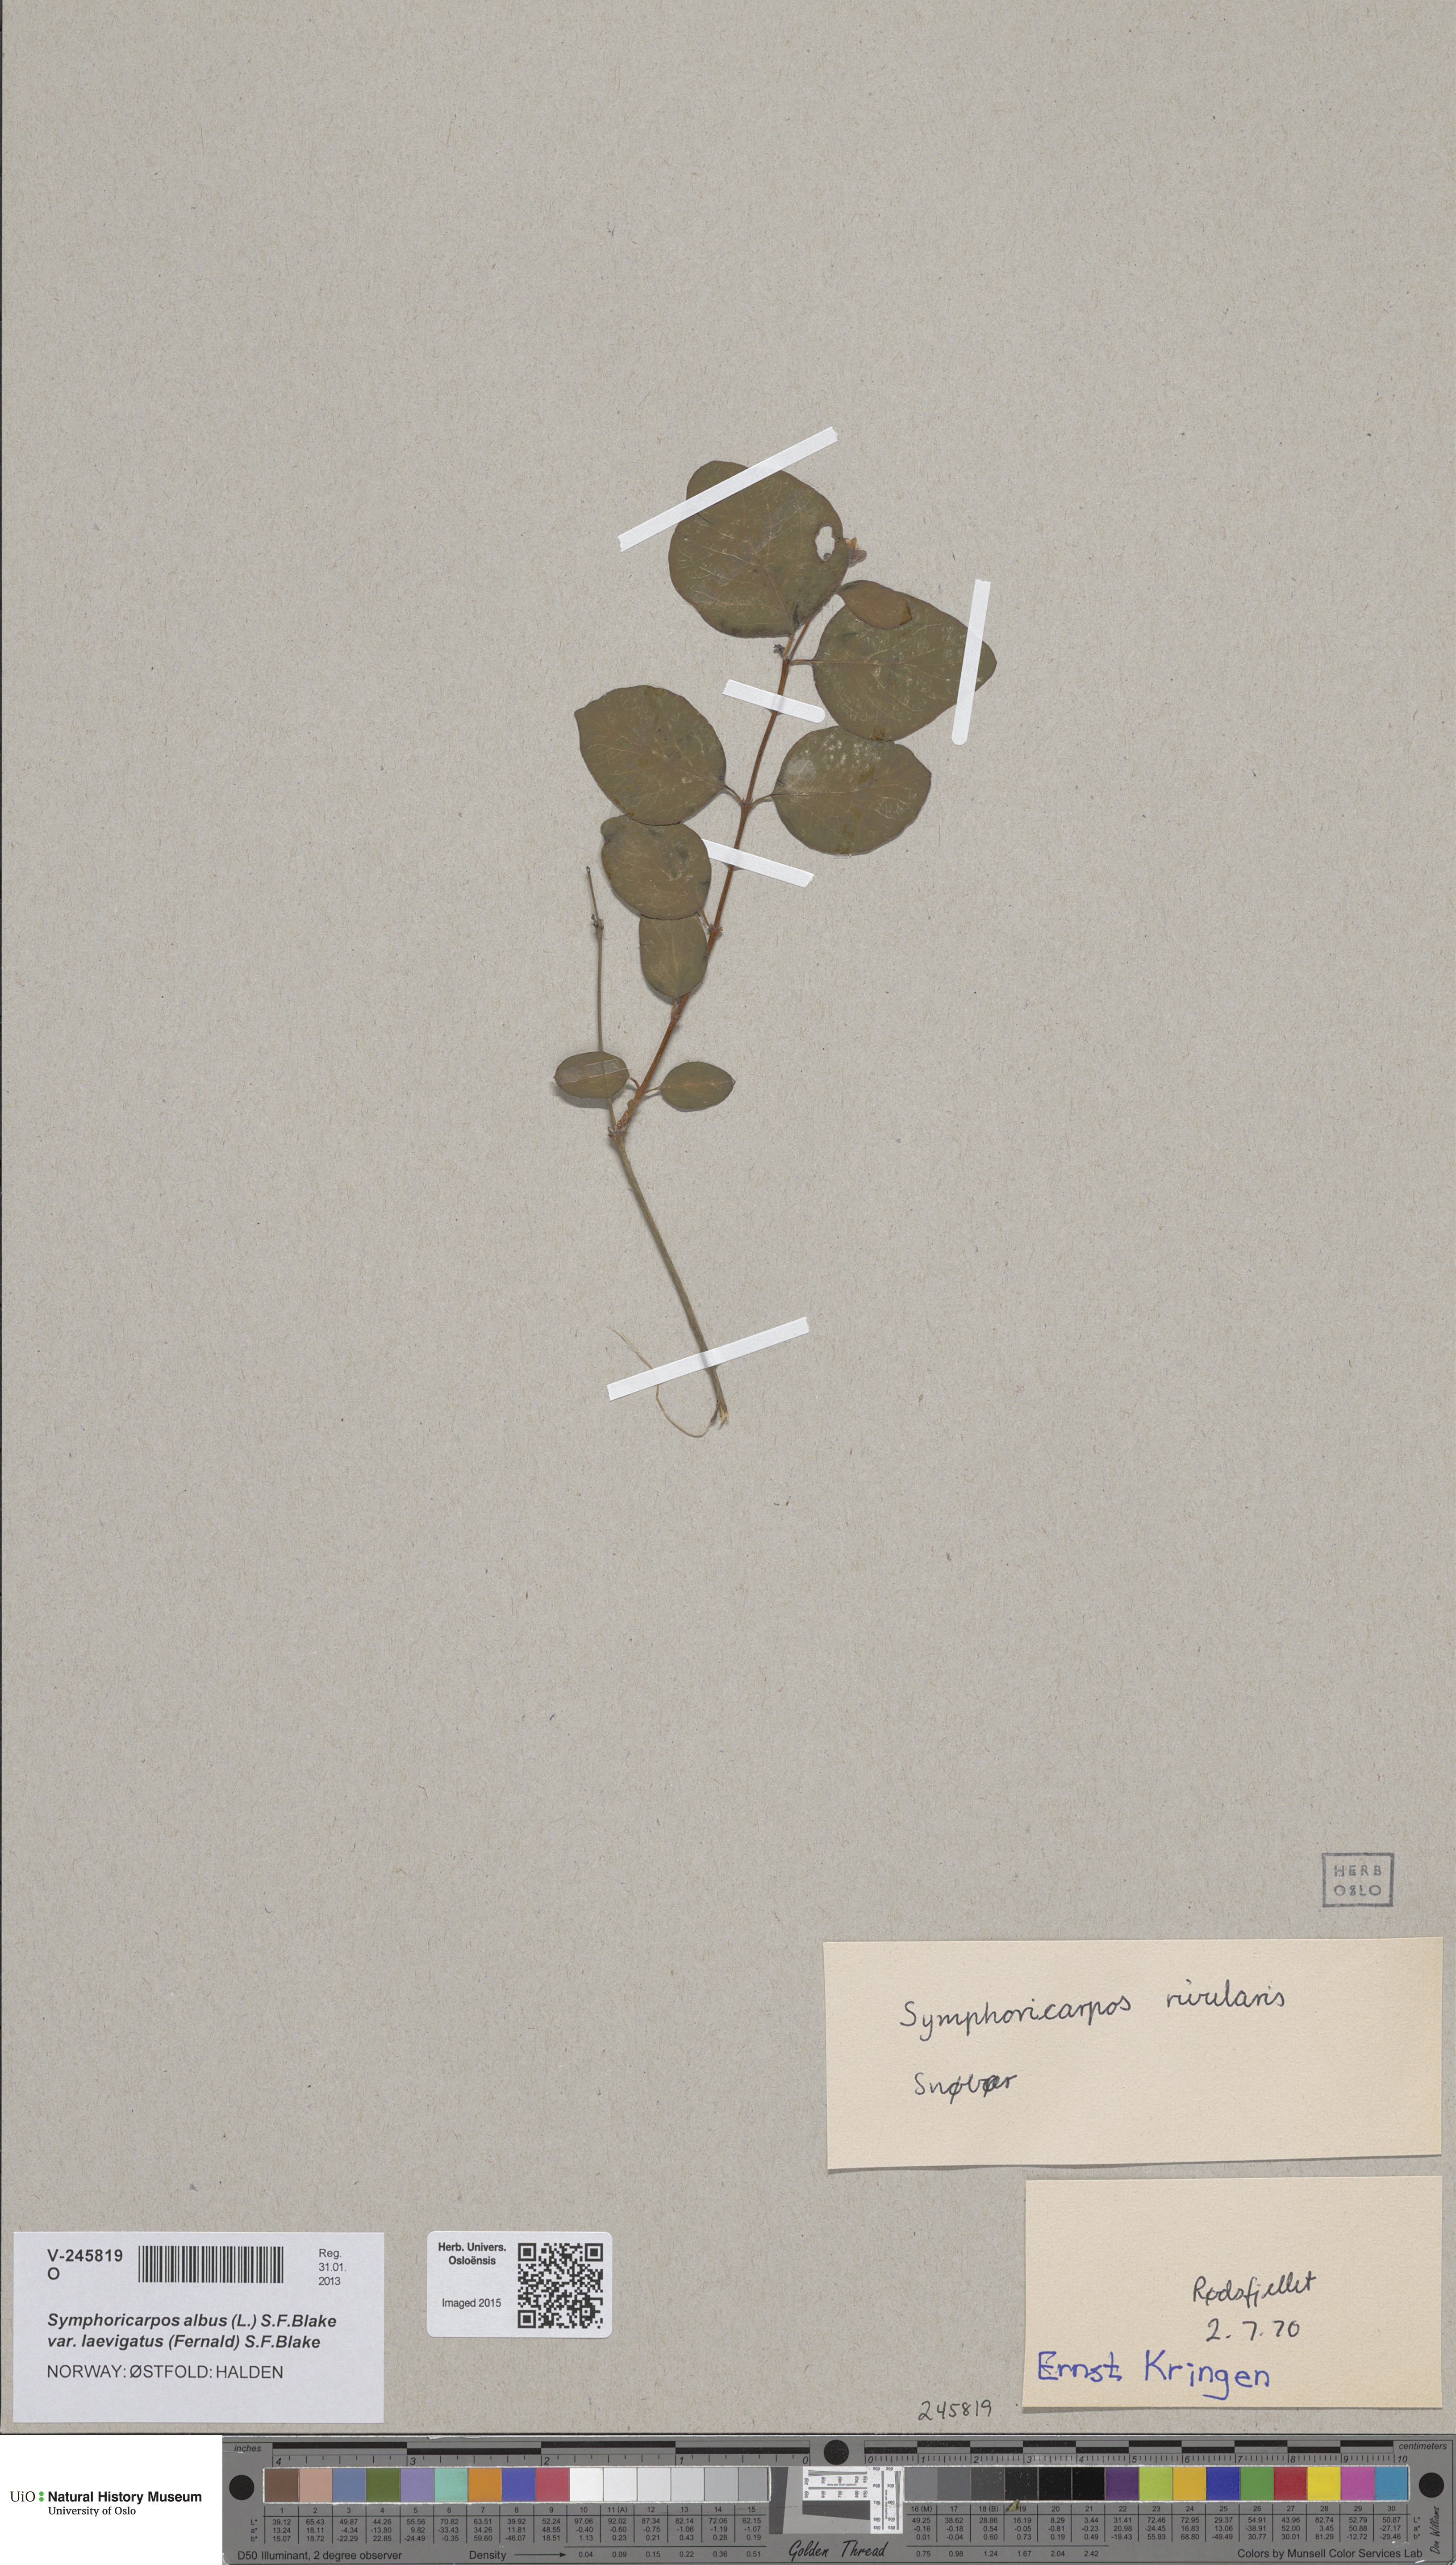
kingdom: Plantae
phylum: Tracheophyta
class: Magnoliopsida
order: Dipsacales
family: Caprifoliaceae
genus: Symphoricarpos
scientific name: Symphoricarpos albus
